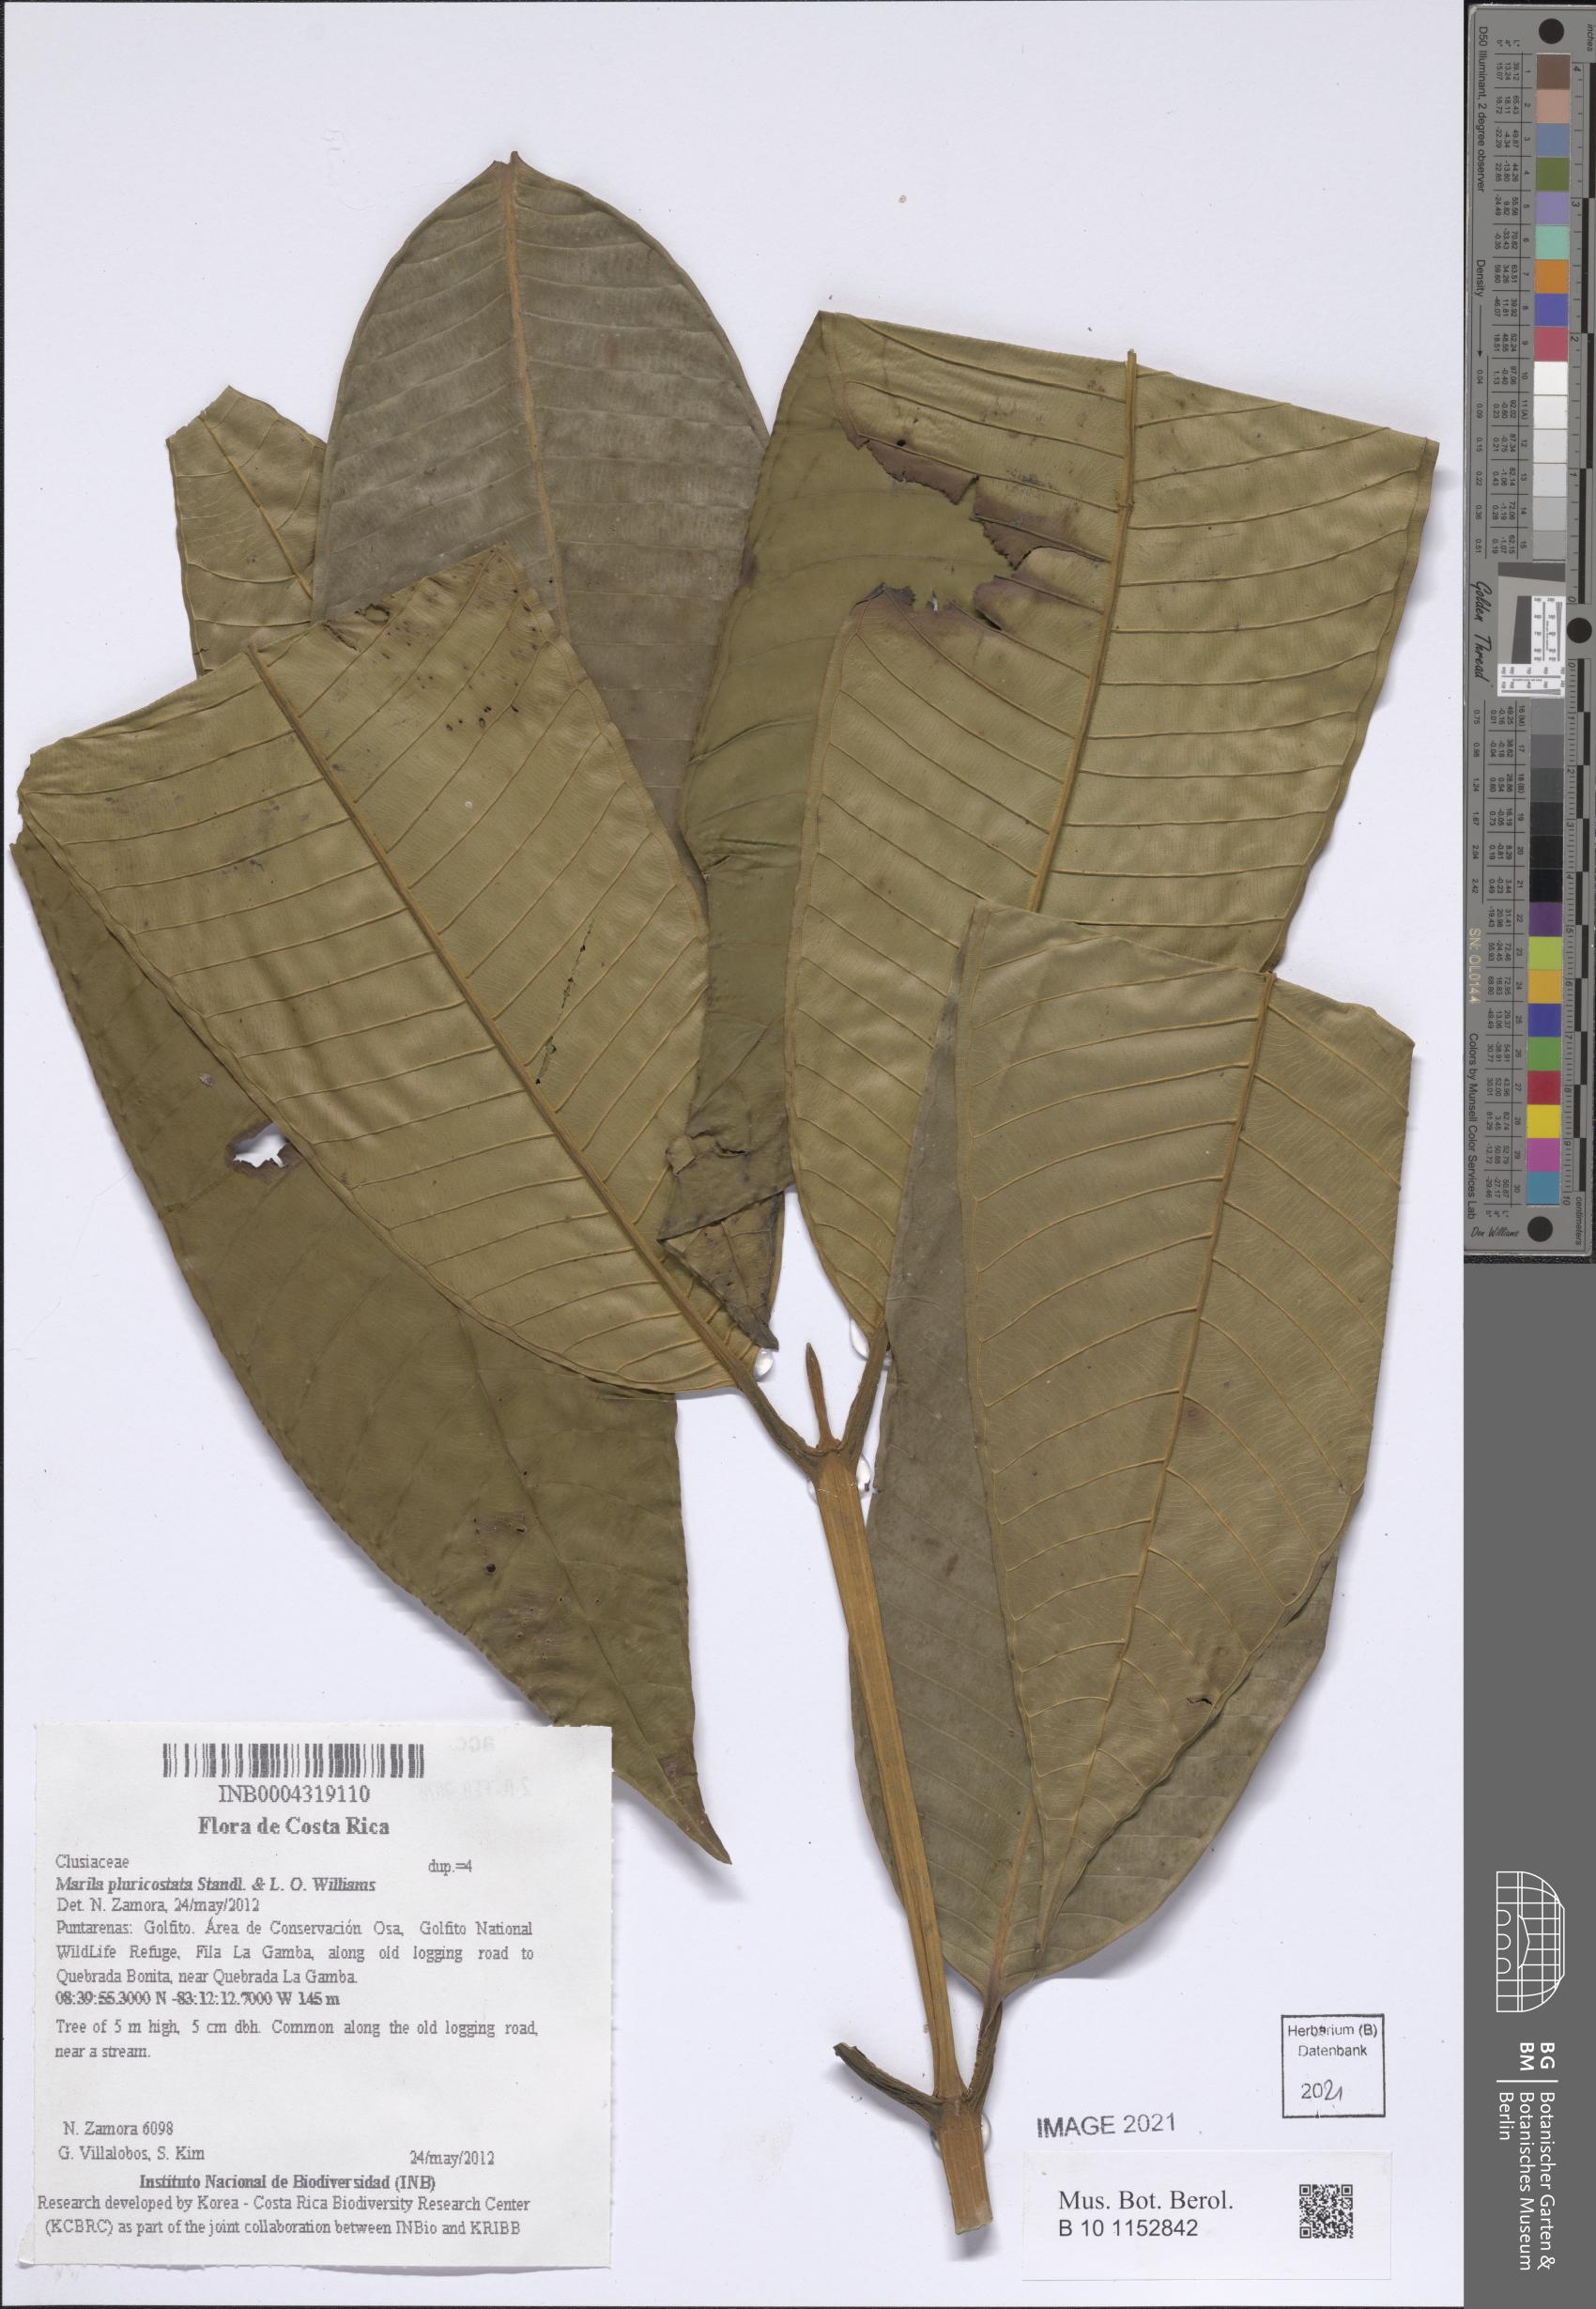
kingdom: Plantae
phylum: Tracheophyta
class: Magnoliopsida
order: Malpighiales
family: Calophyllaceae
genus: Marila
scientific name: Marila podantha
